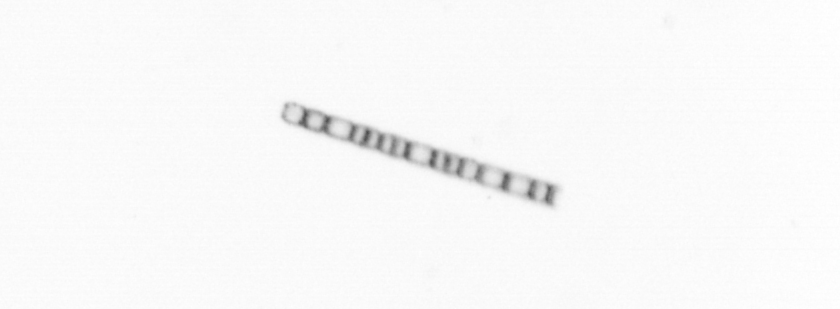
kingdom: Chromista
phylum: Ochrophyta
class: Bacillariophyceae
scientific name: Bacillariophyceae
